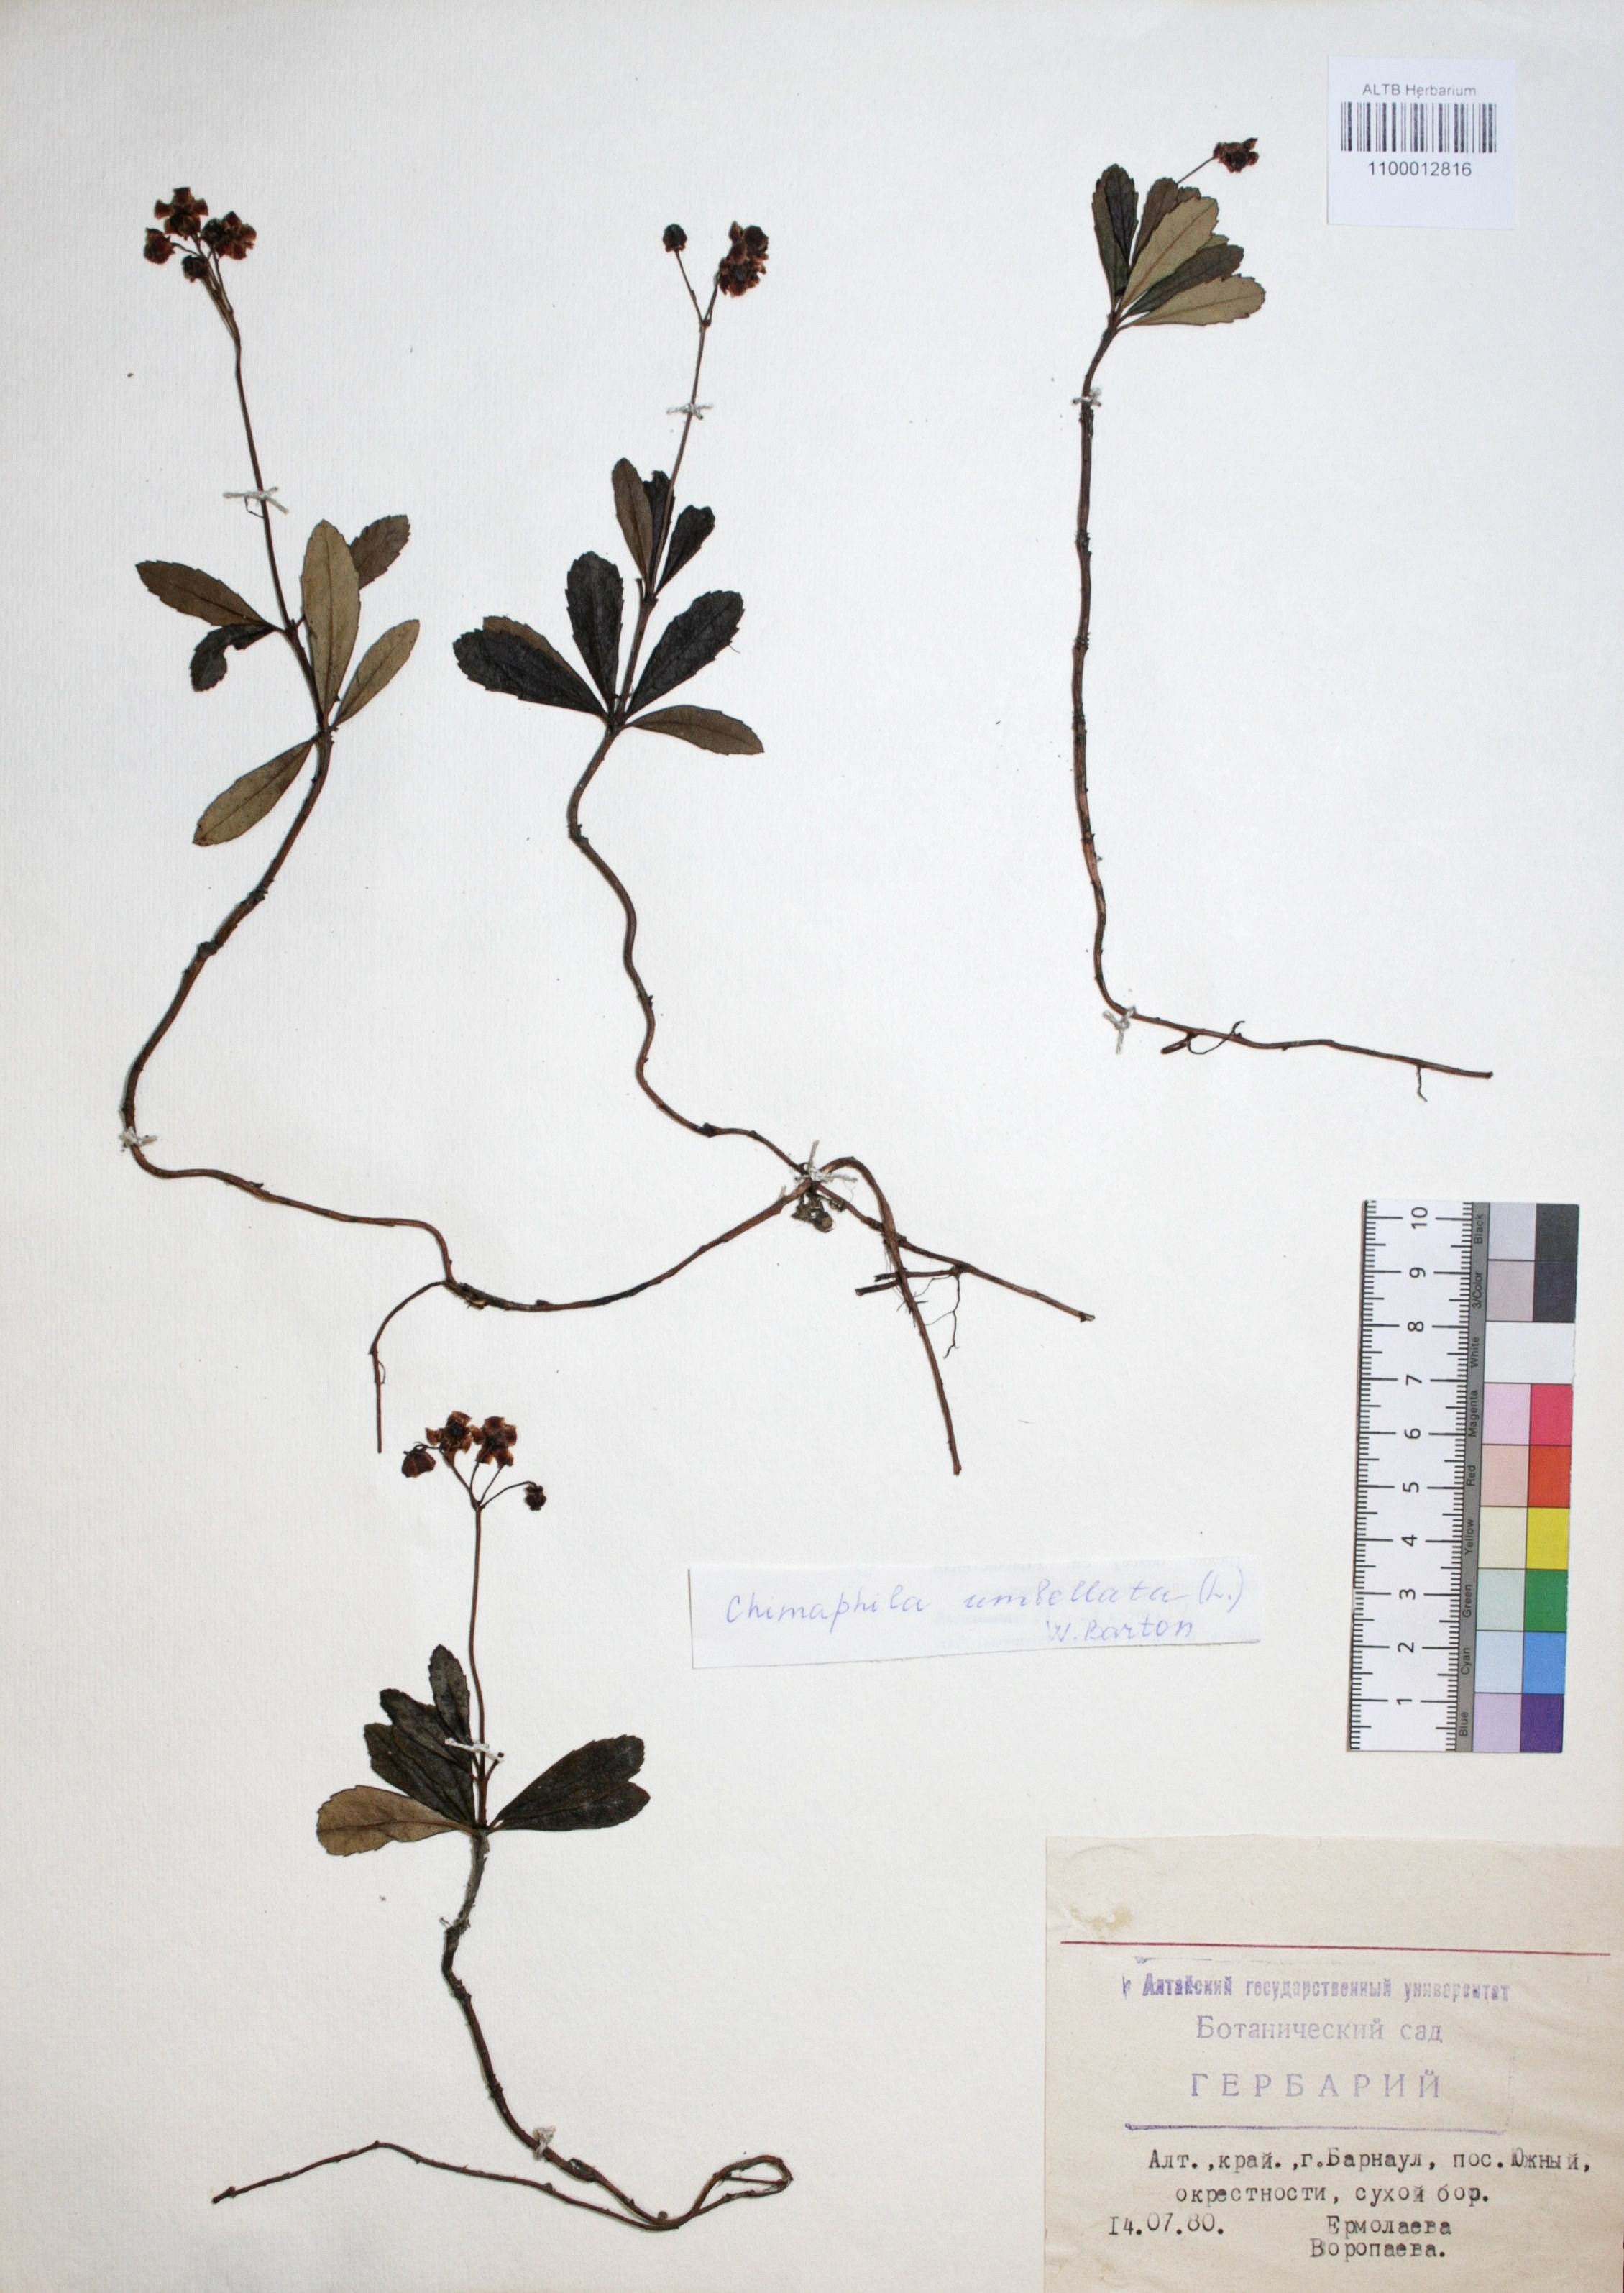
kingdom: Plantae
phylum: Tracheophyta
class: Magnoliopsida
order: Ericales
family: Ericaceae
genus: Chimaphila
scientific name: Chimaphila umbellata
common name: Pipsissewa
